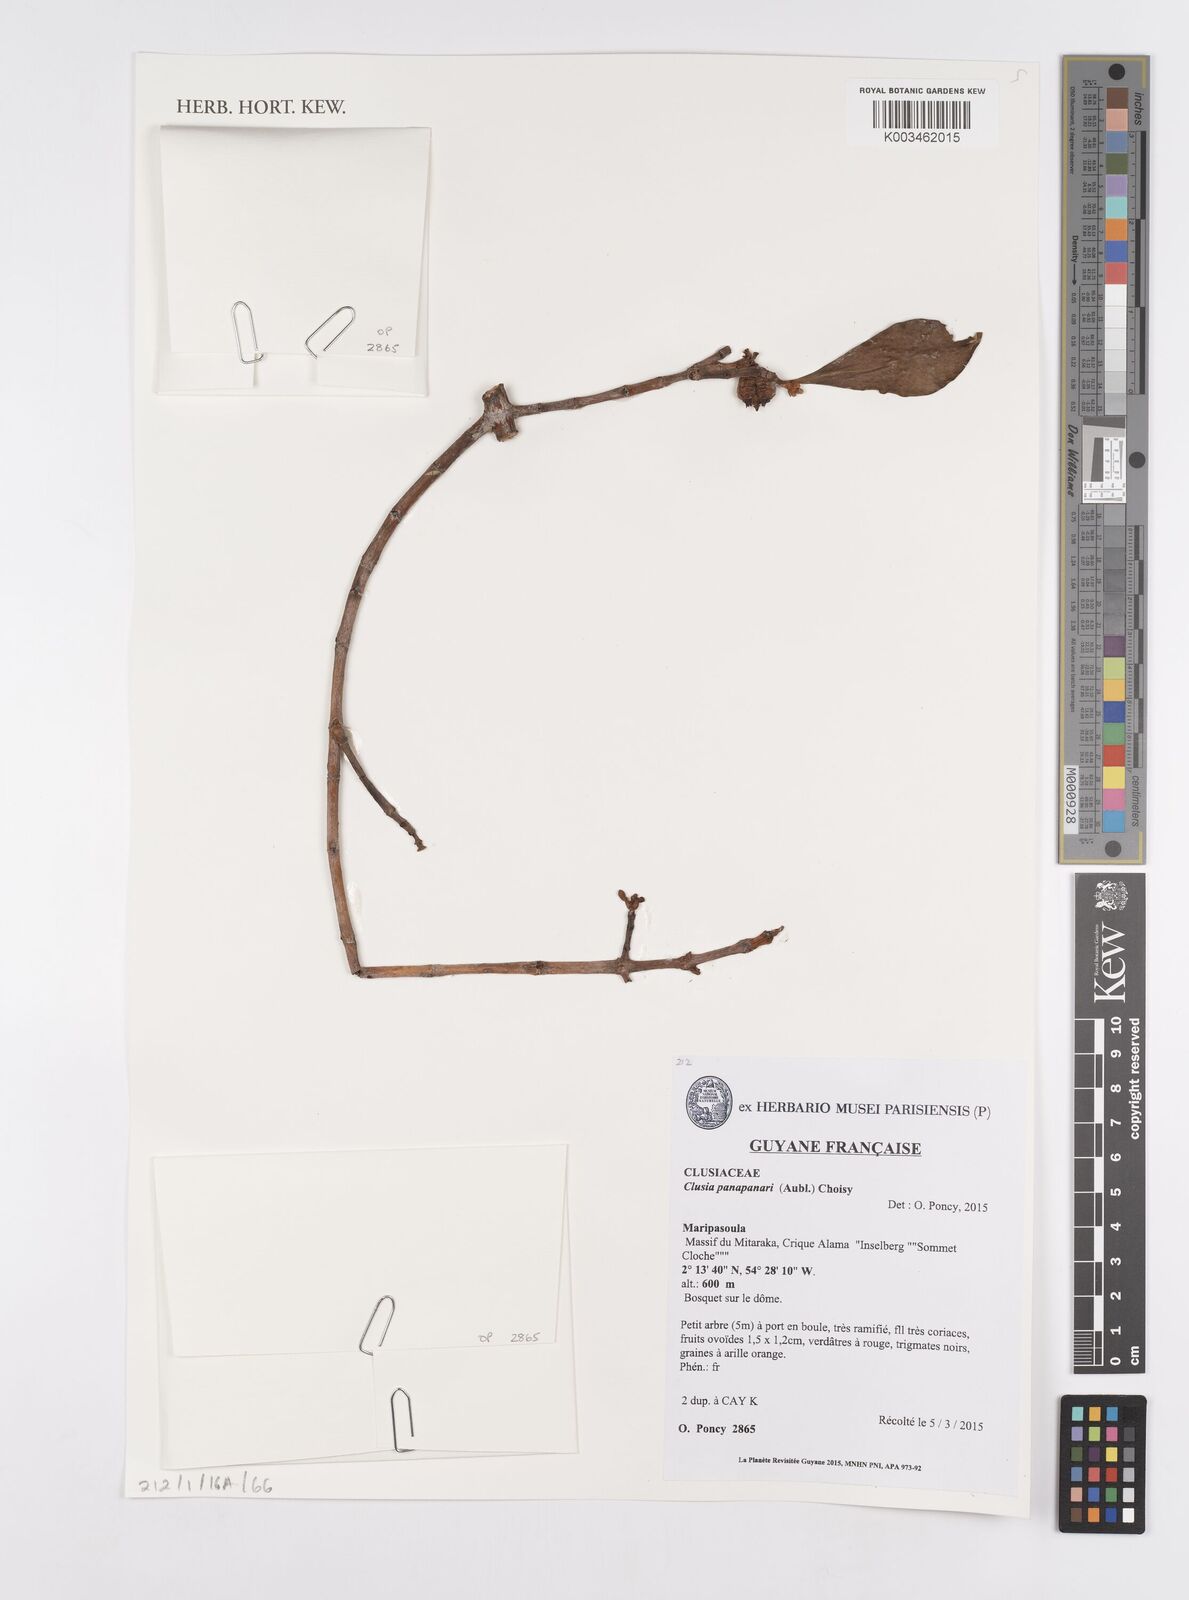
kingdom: Plantae
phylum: Tracheophyta
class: Magnoliopsida
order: Malpighiales
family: Clusiaceae
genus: Clusia
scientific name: Clusia panapanari
